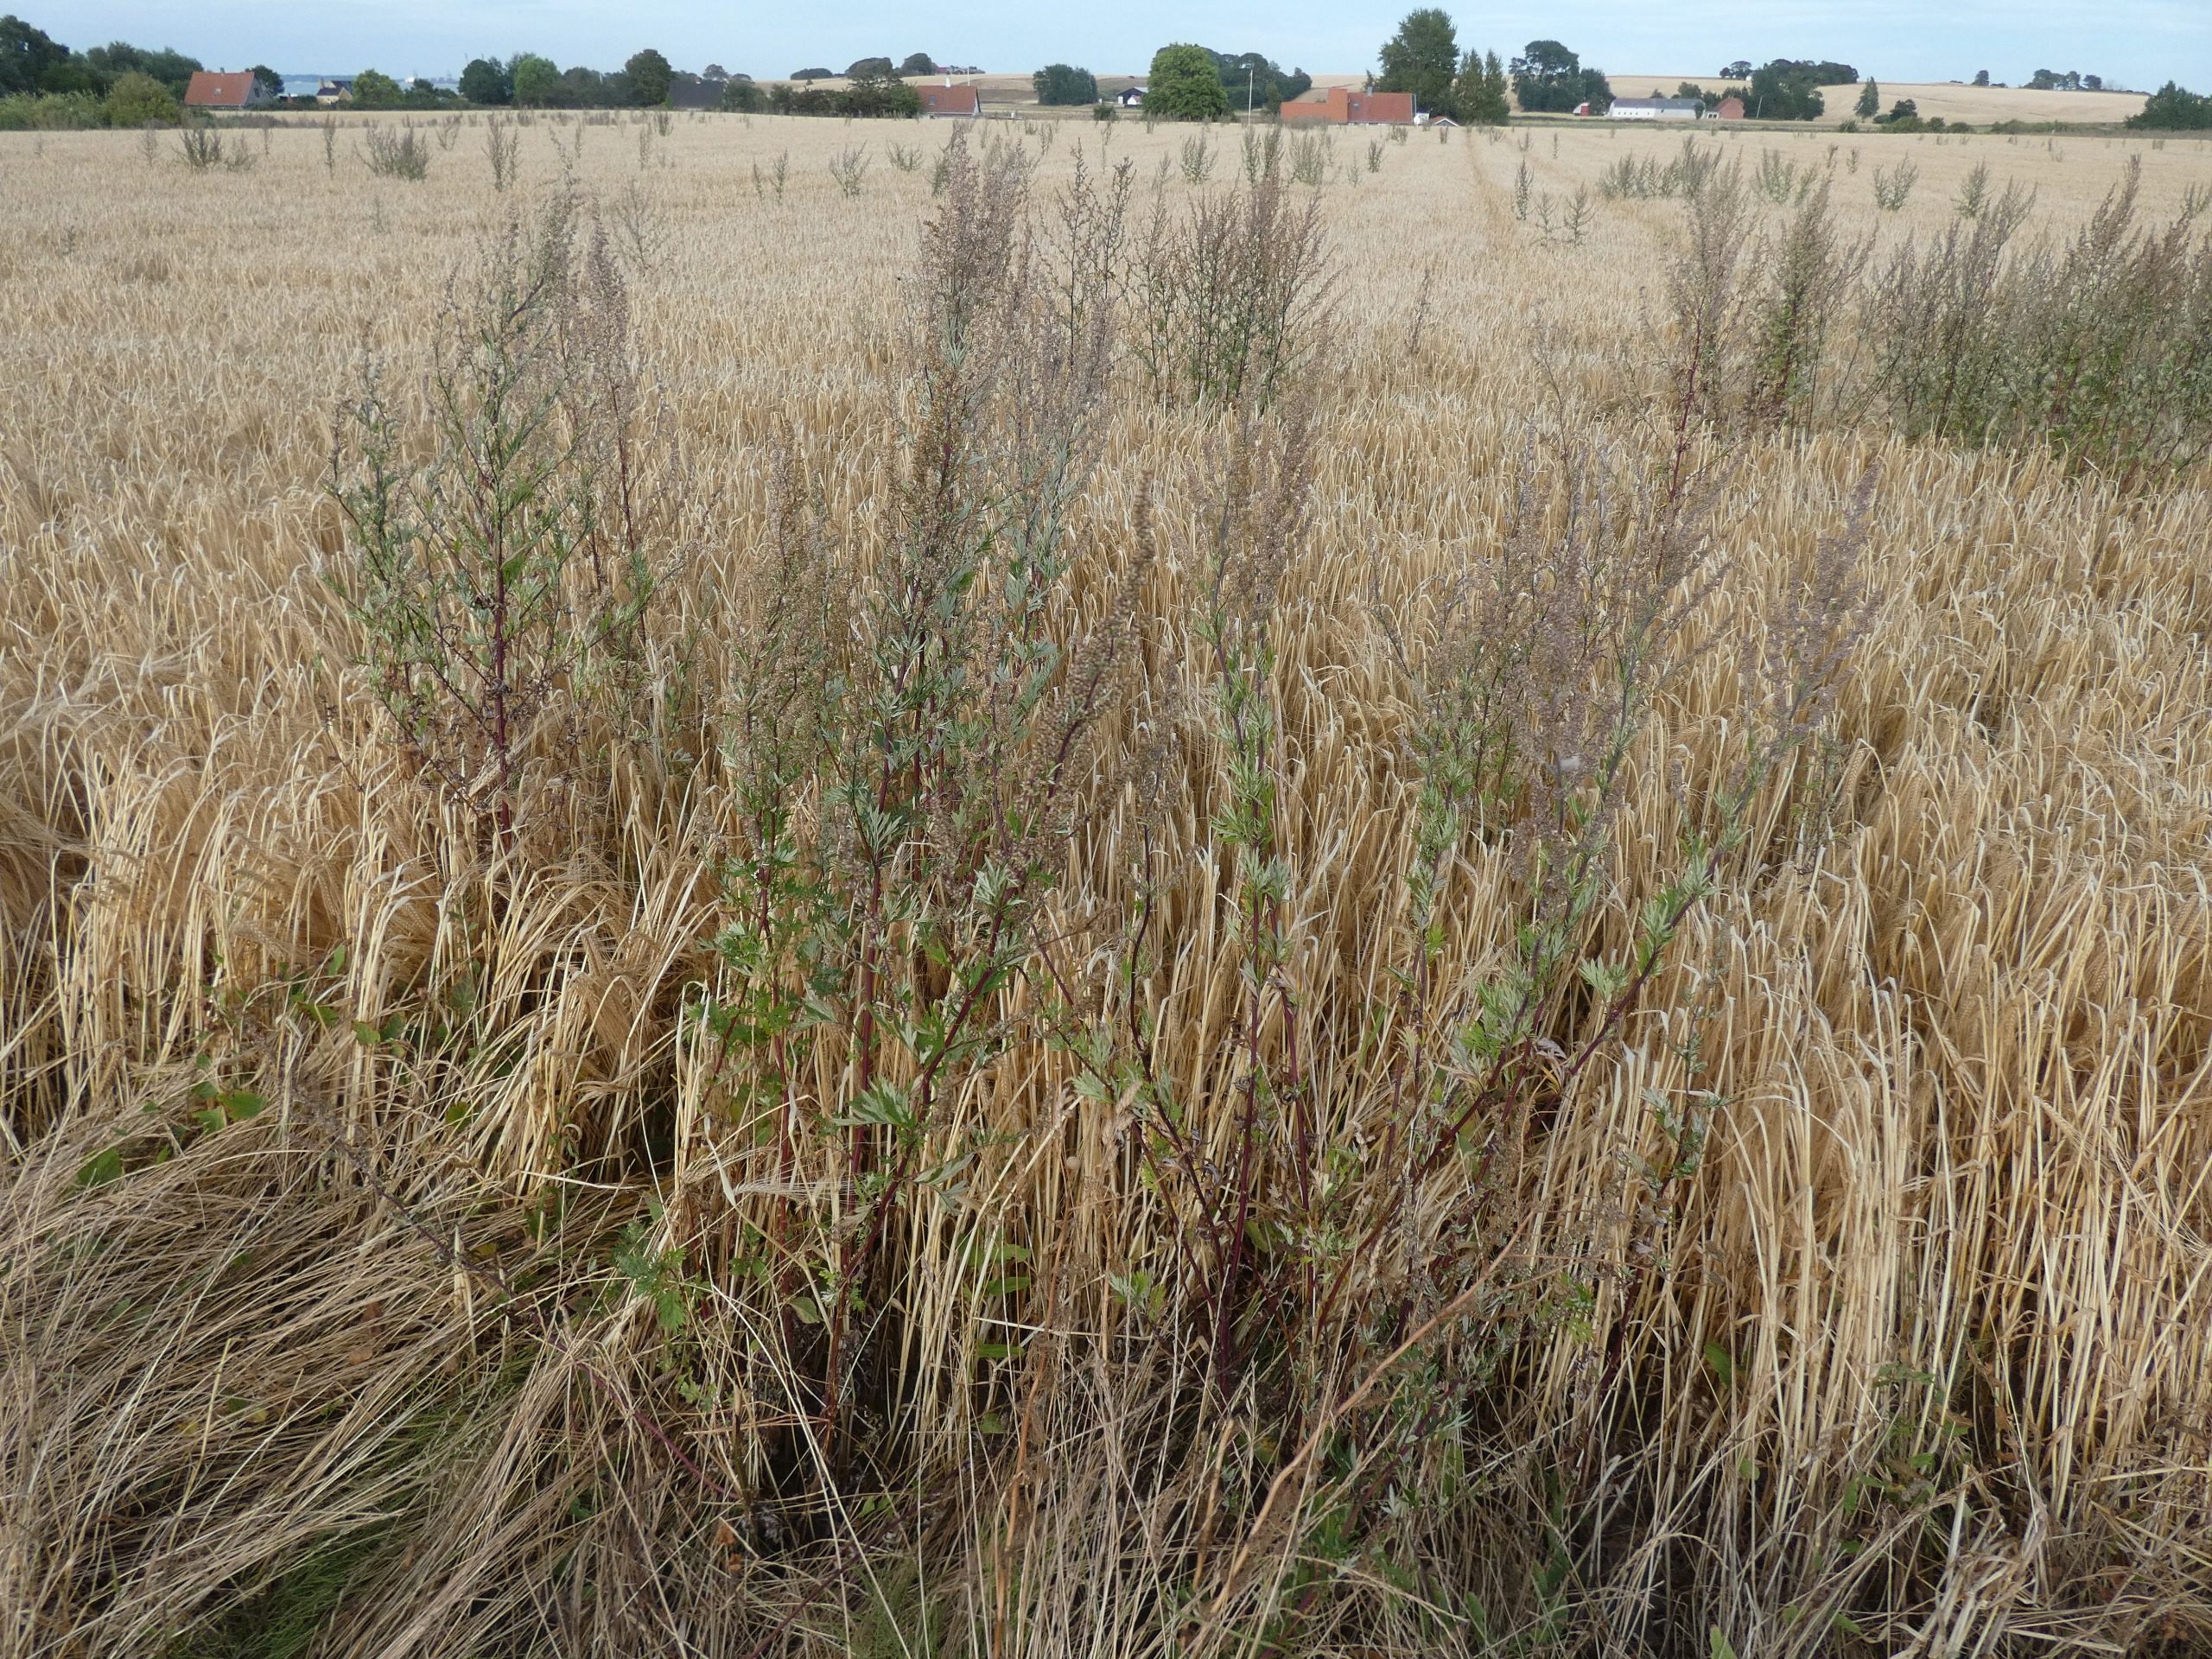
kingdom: Plantae
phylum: Tracheophyta
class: Magnoliopsida
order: Asterales
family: Asteraceae
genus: Artemisia
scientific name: Artemisia vulgaris
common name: Grå-bynke
